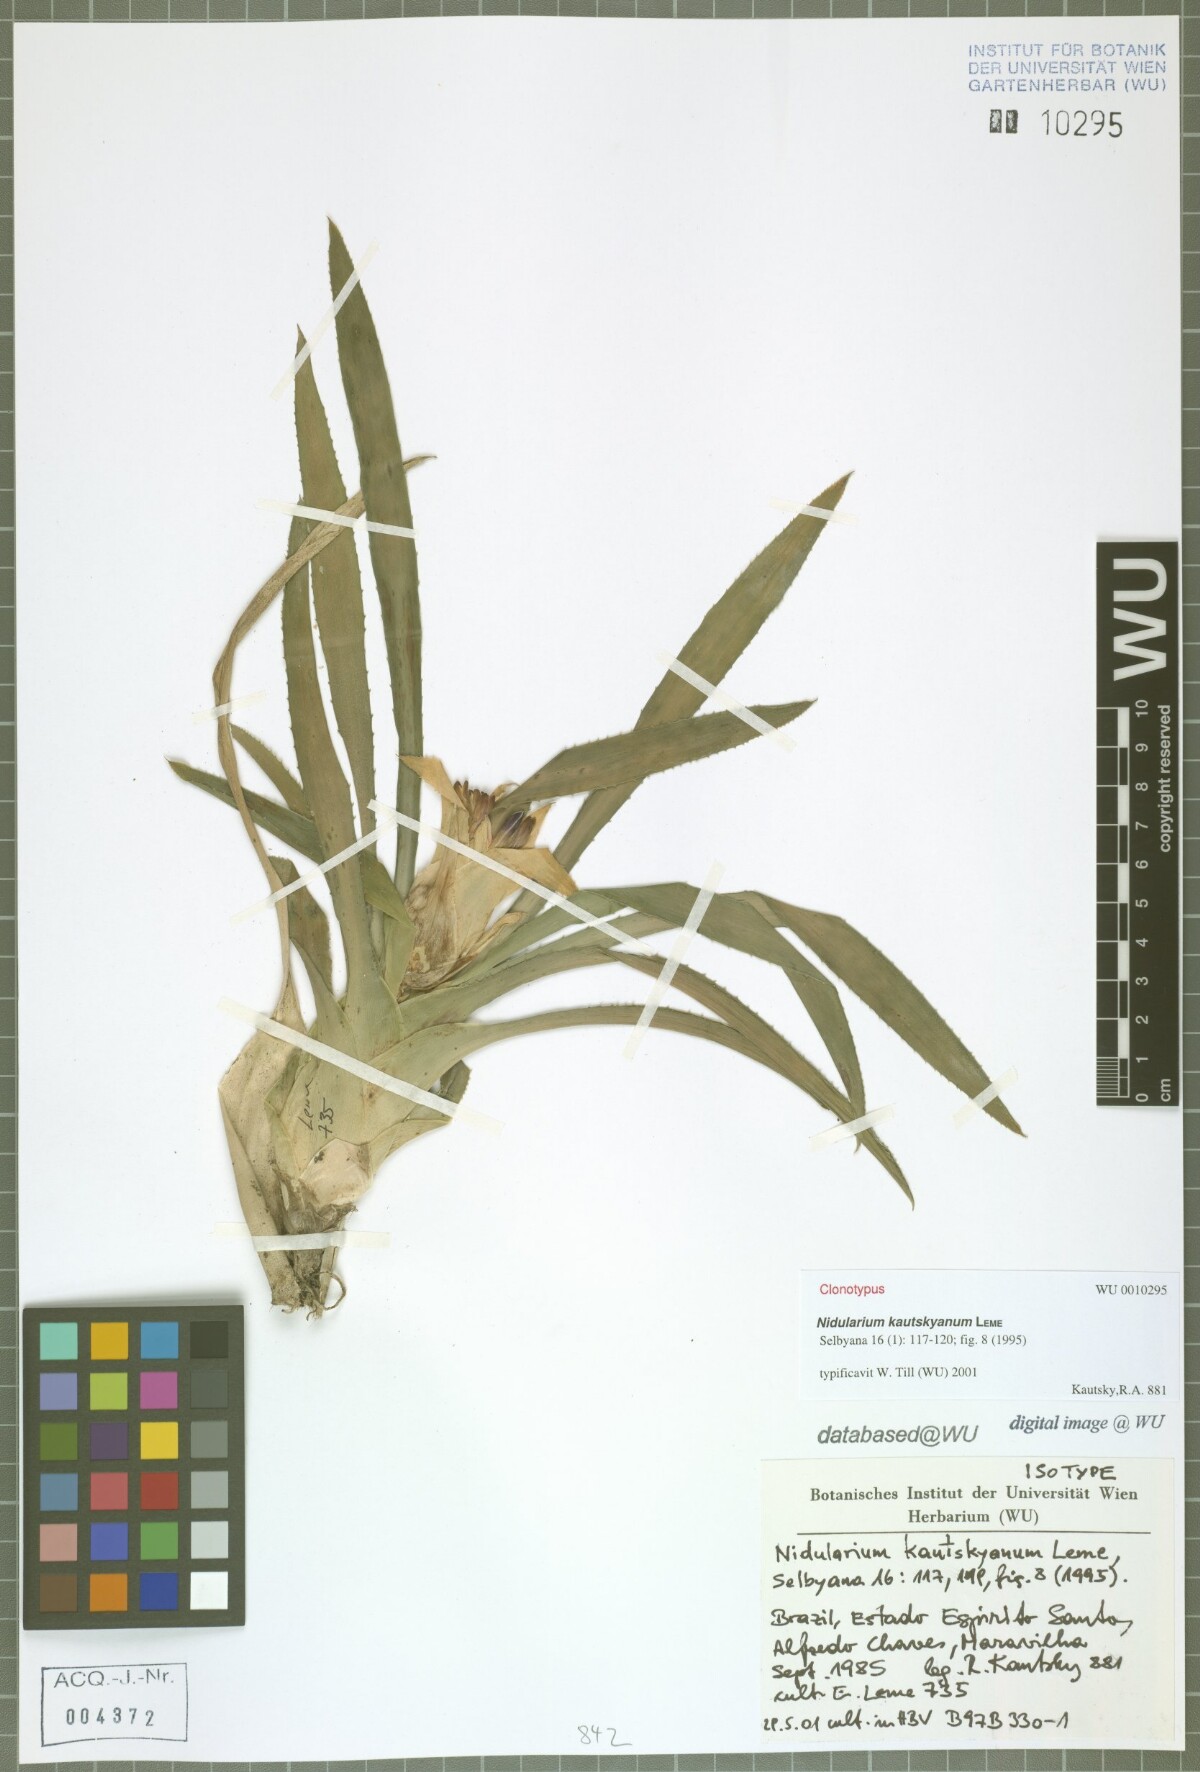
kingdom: Plantae
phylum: Tracheophyta
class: Liliopsida
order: Poales
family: Bromeliaceae
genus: Nidularium
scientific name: Nidularium kautskyanum
